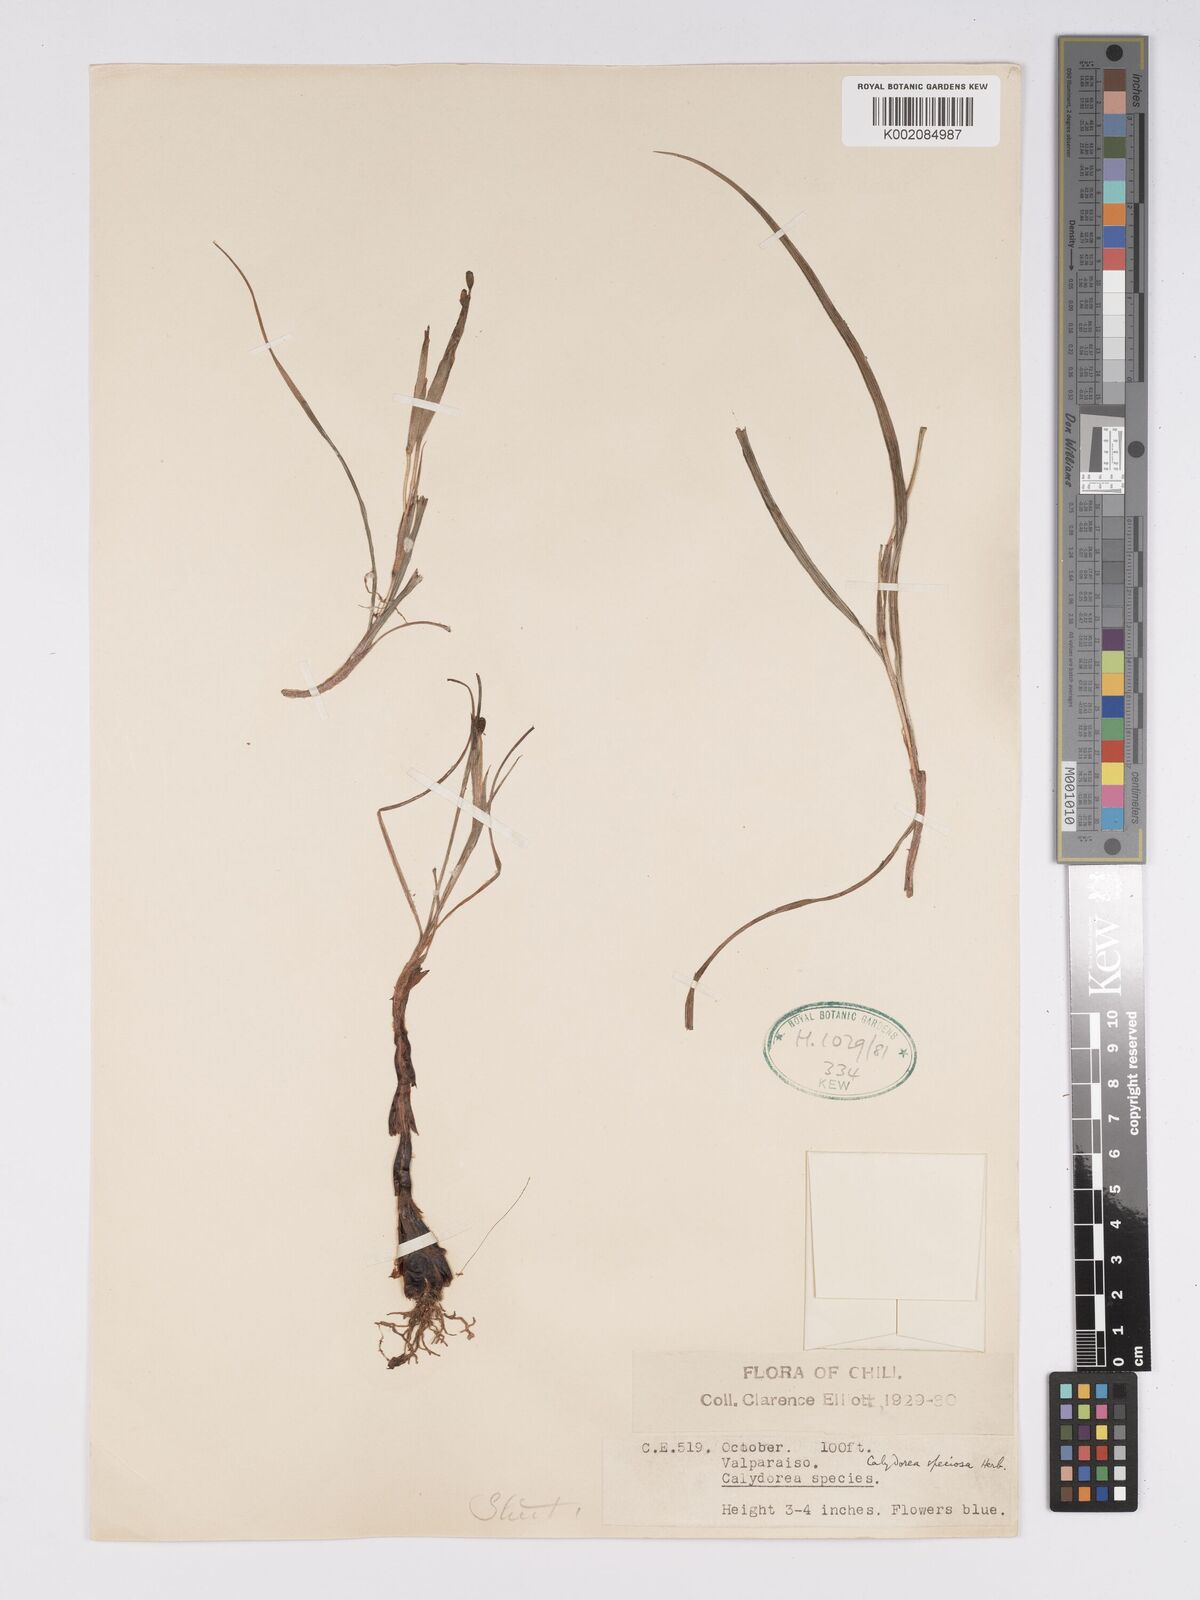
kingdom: Plantae
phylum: Tracheophyta
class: Liliopsida
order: Asparagales
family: Iridaceae
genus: Calydorea
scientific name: Calydorea xiphioides
